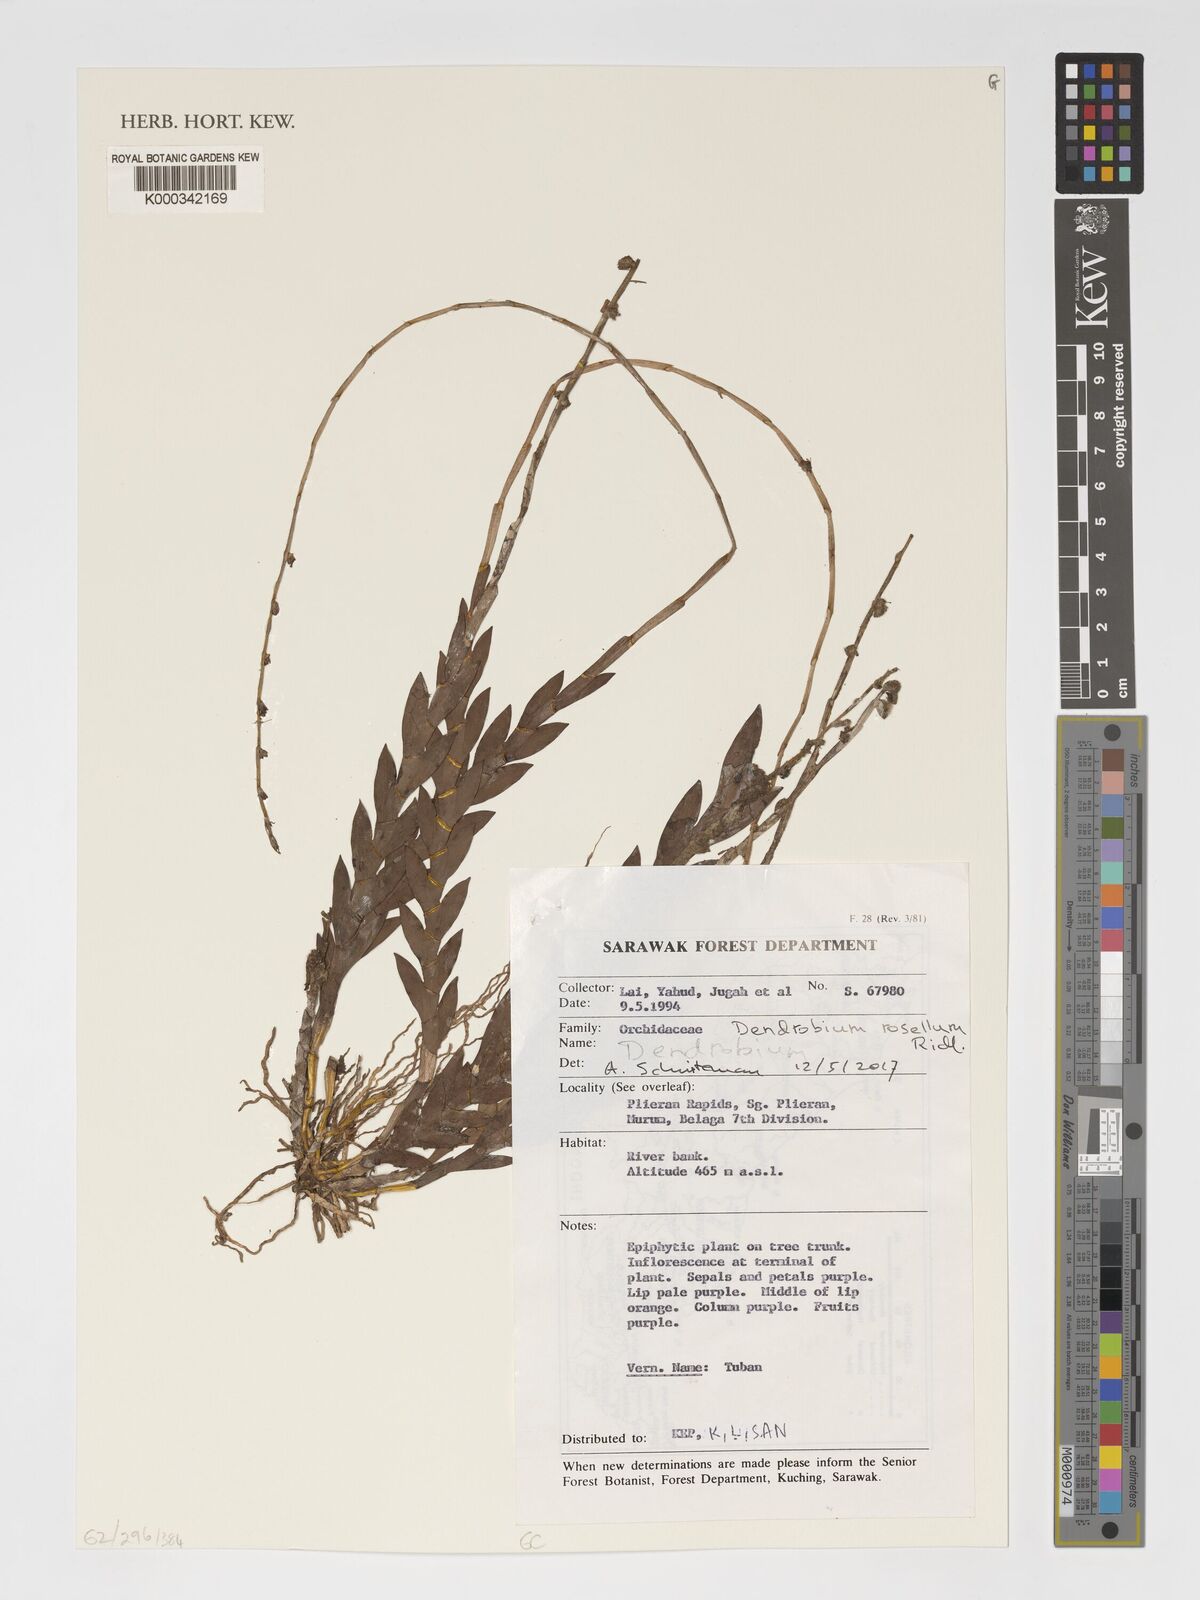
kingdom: Plantae
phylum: Tracheophyta
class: Liliopsida
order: Asparagales
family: Orchidaceae
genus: Dendrobium
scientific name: Dendrobium rosellum
